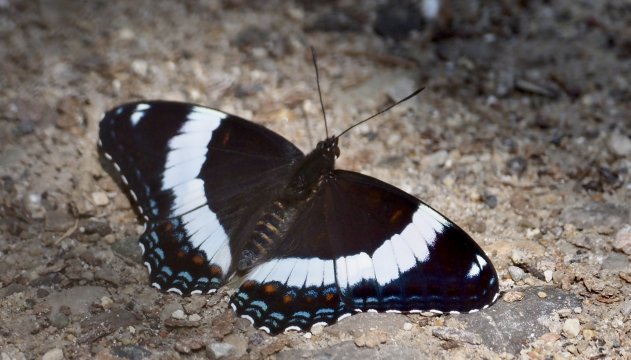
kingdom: Animalia
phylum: Arthropoda
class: Insecta
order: Lepidoptera
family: Nymphalidae
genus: Limenitis
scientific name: Limenitis arthemis
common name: Red-spotted Admiral
